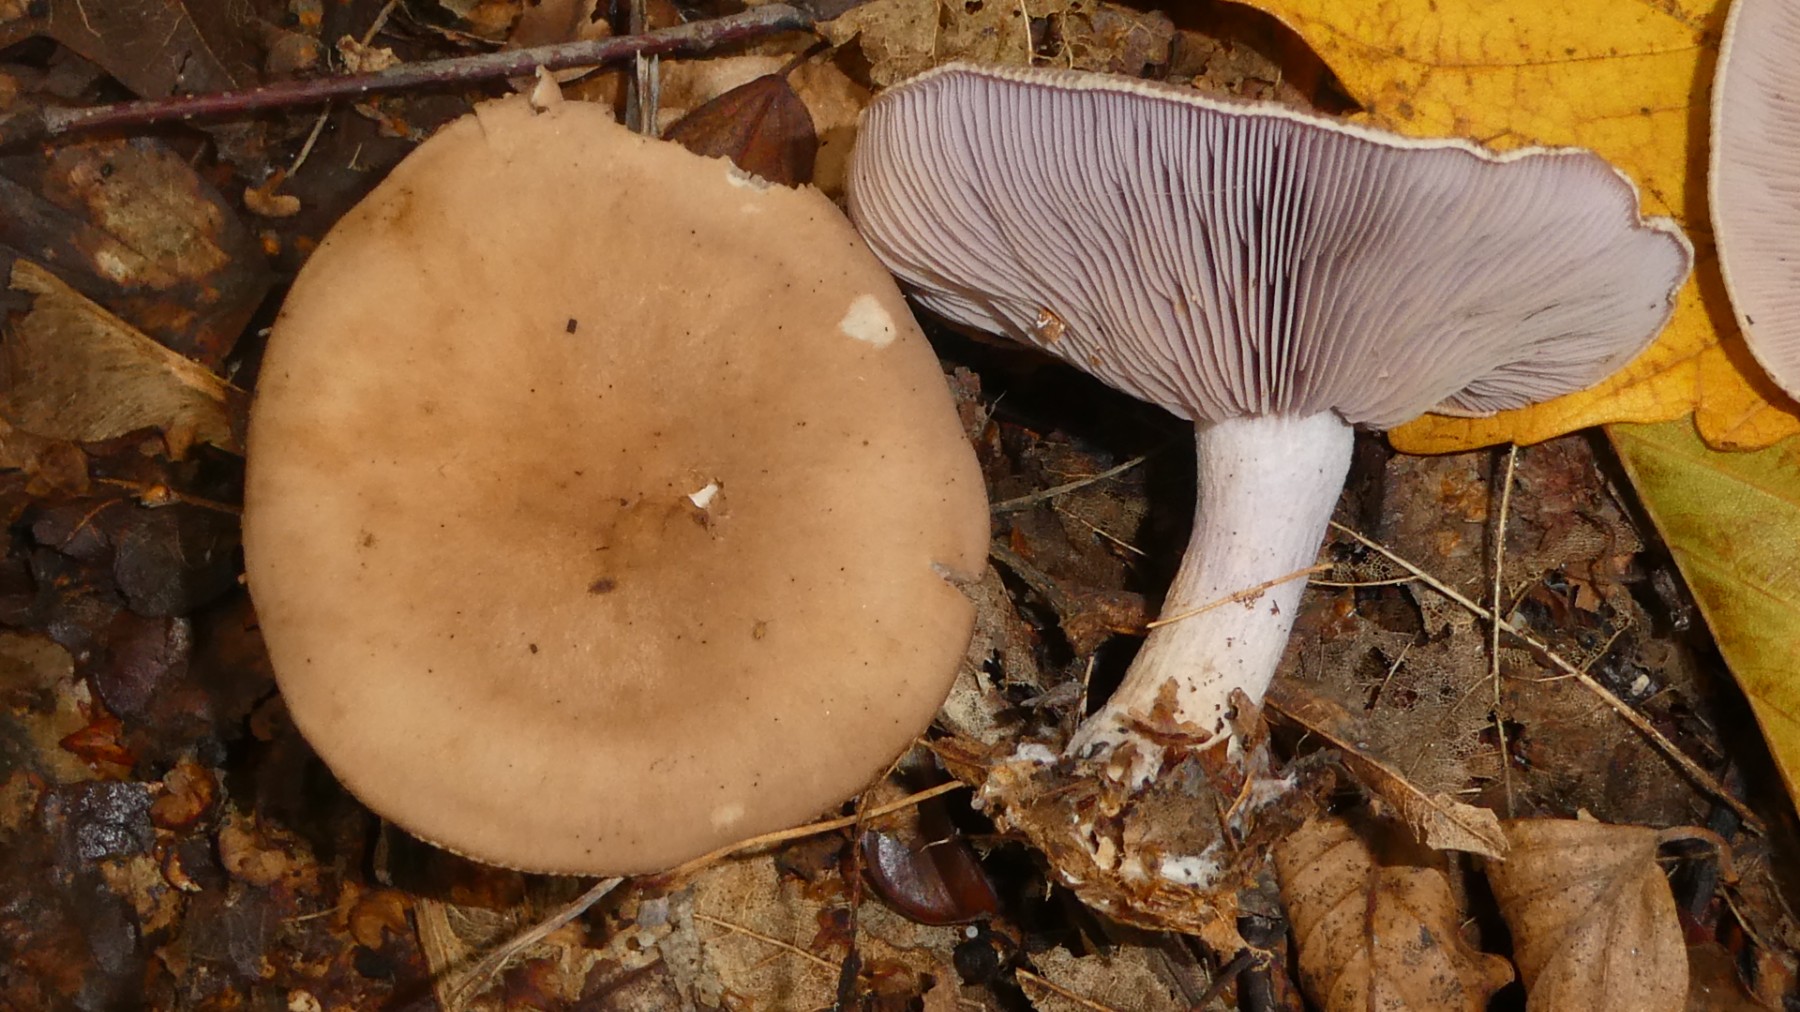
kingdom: Fungi
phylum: Basidiomycota
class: Agaricomycetes
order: Agaricales
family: Tricholomataceae
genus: Lepista
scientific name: Lepista nuda
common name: violet hekseringshat
